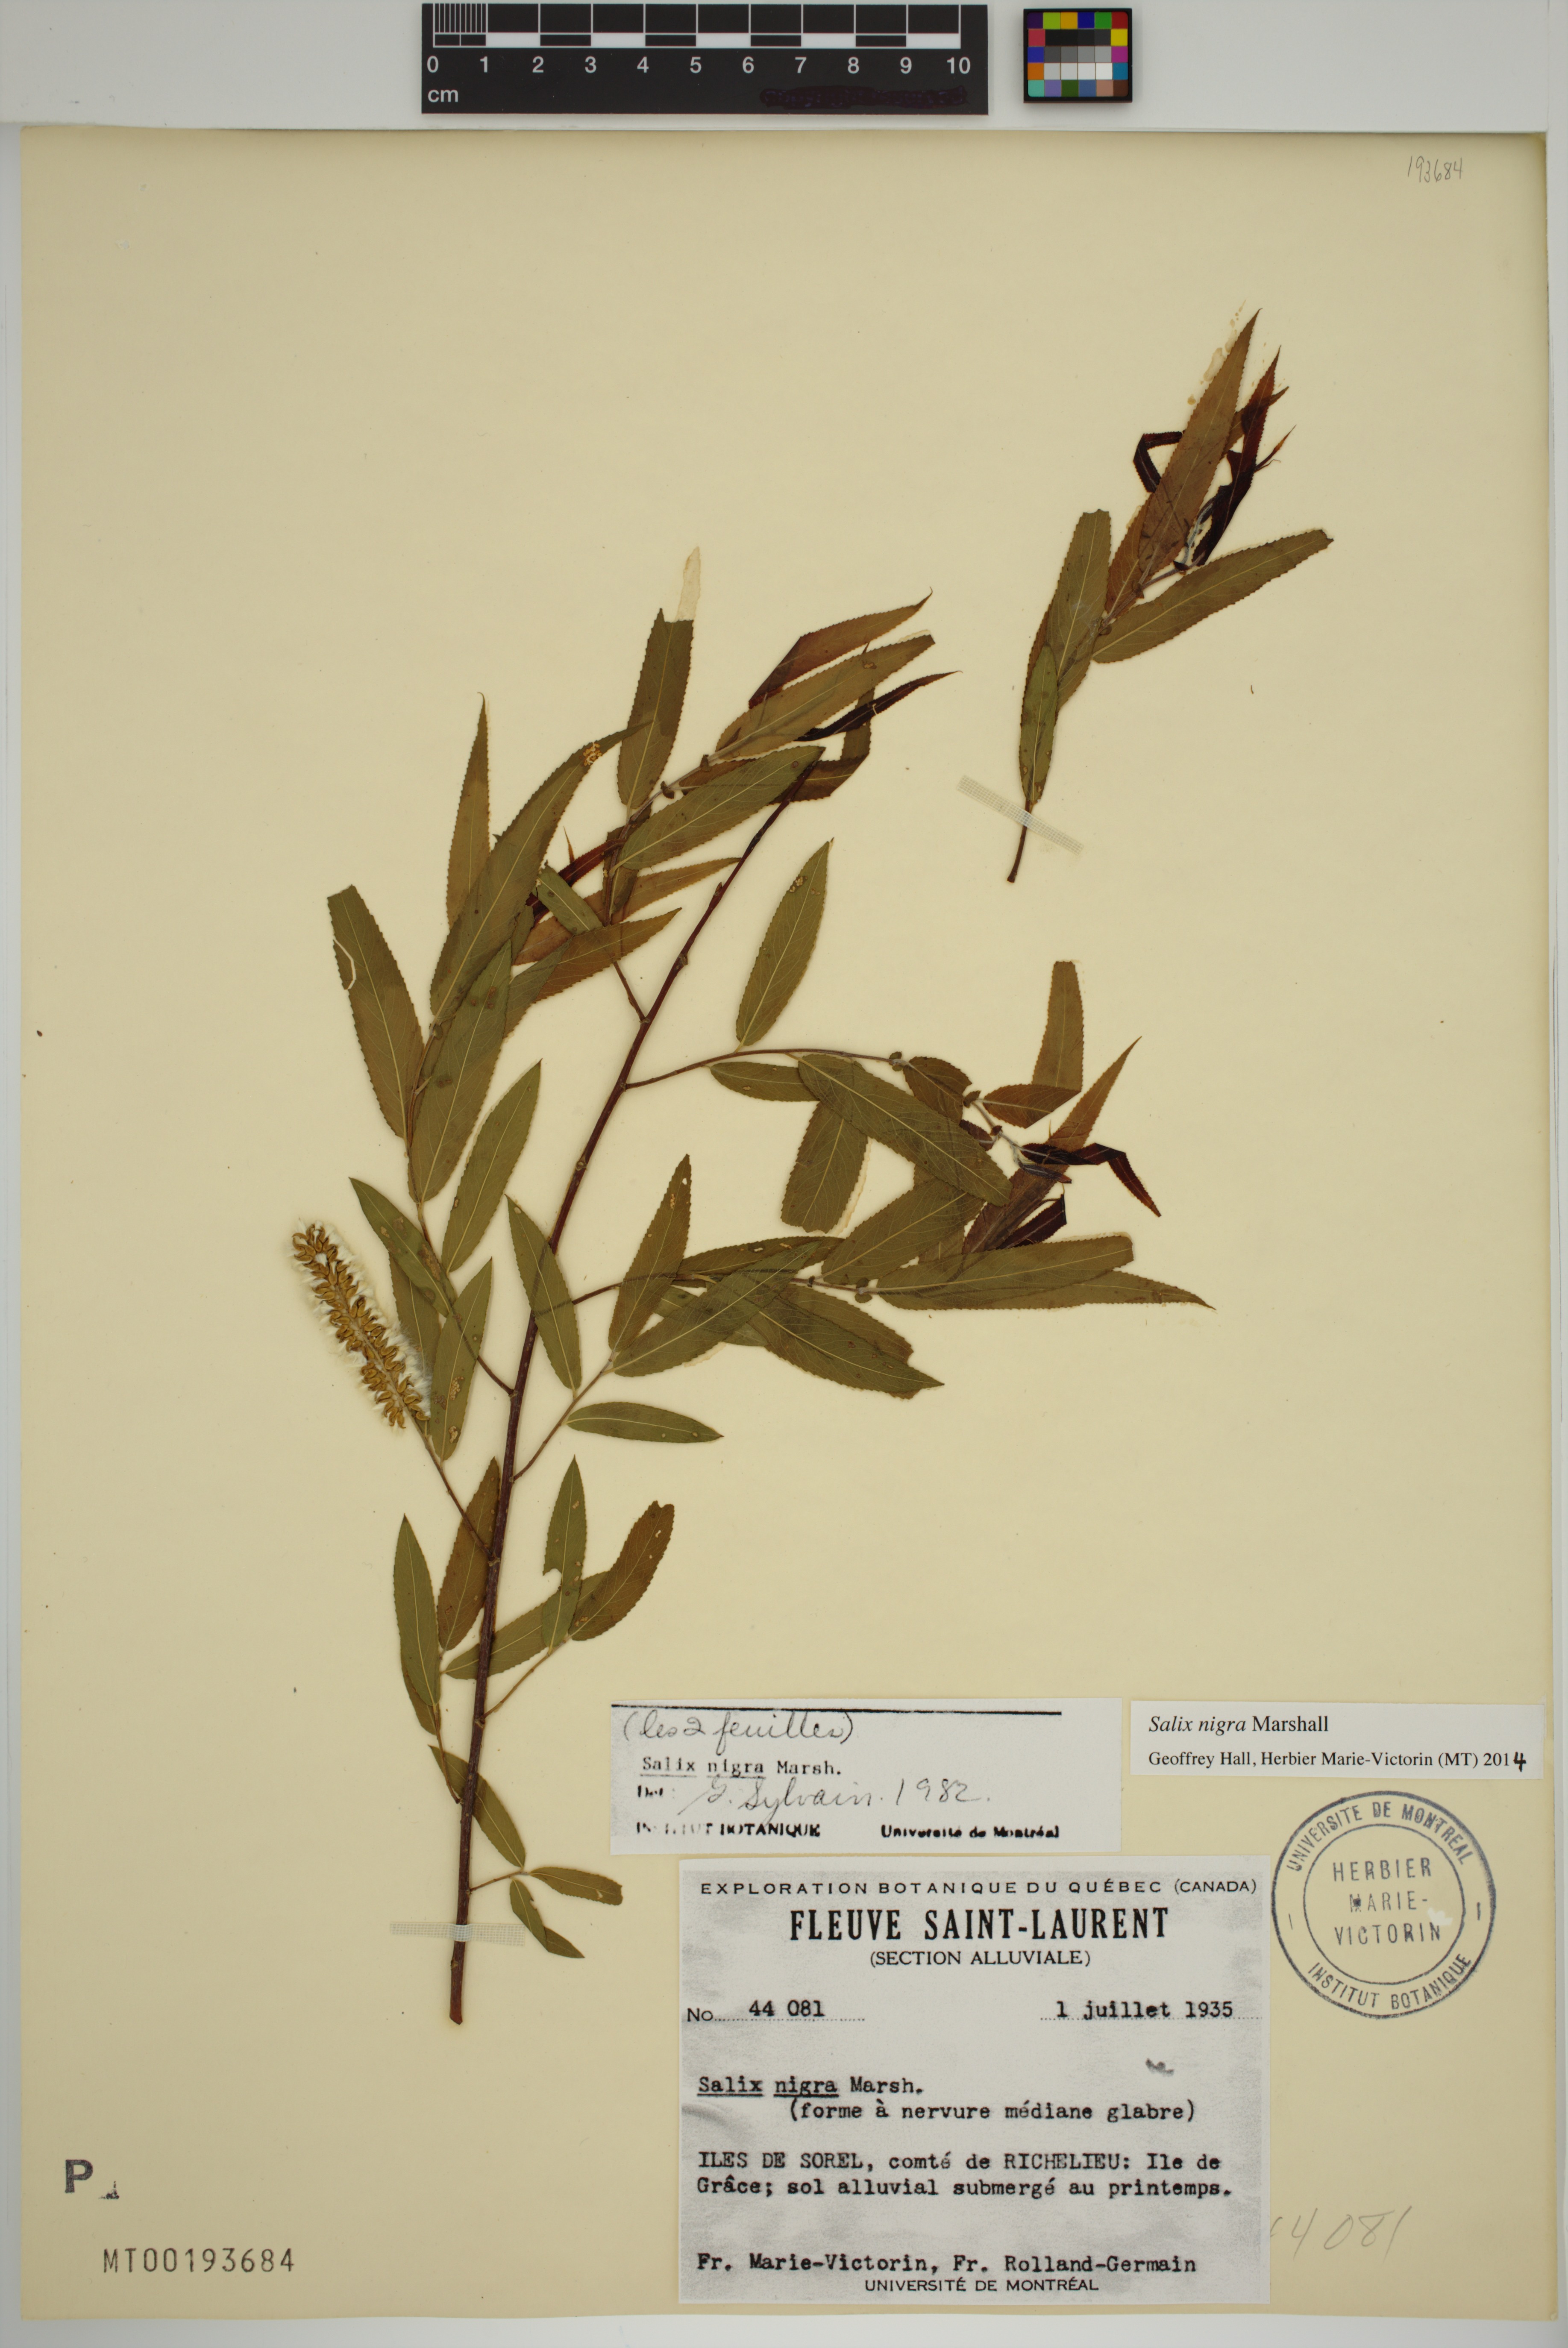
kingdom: Plantae
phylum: Tracheophyta
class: Magnoliopsida
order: Malpighiales
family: Salicaceae
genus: Salix
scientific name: Salix nigra
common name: Black willow
